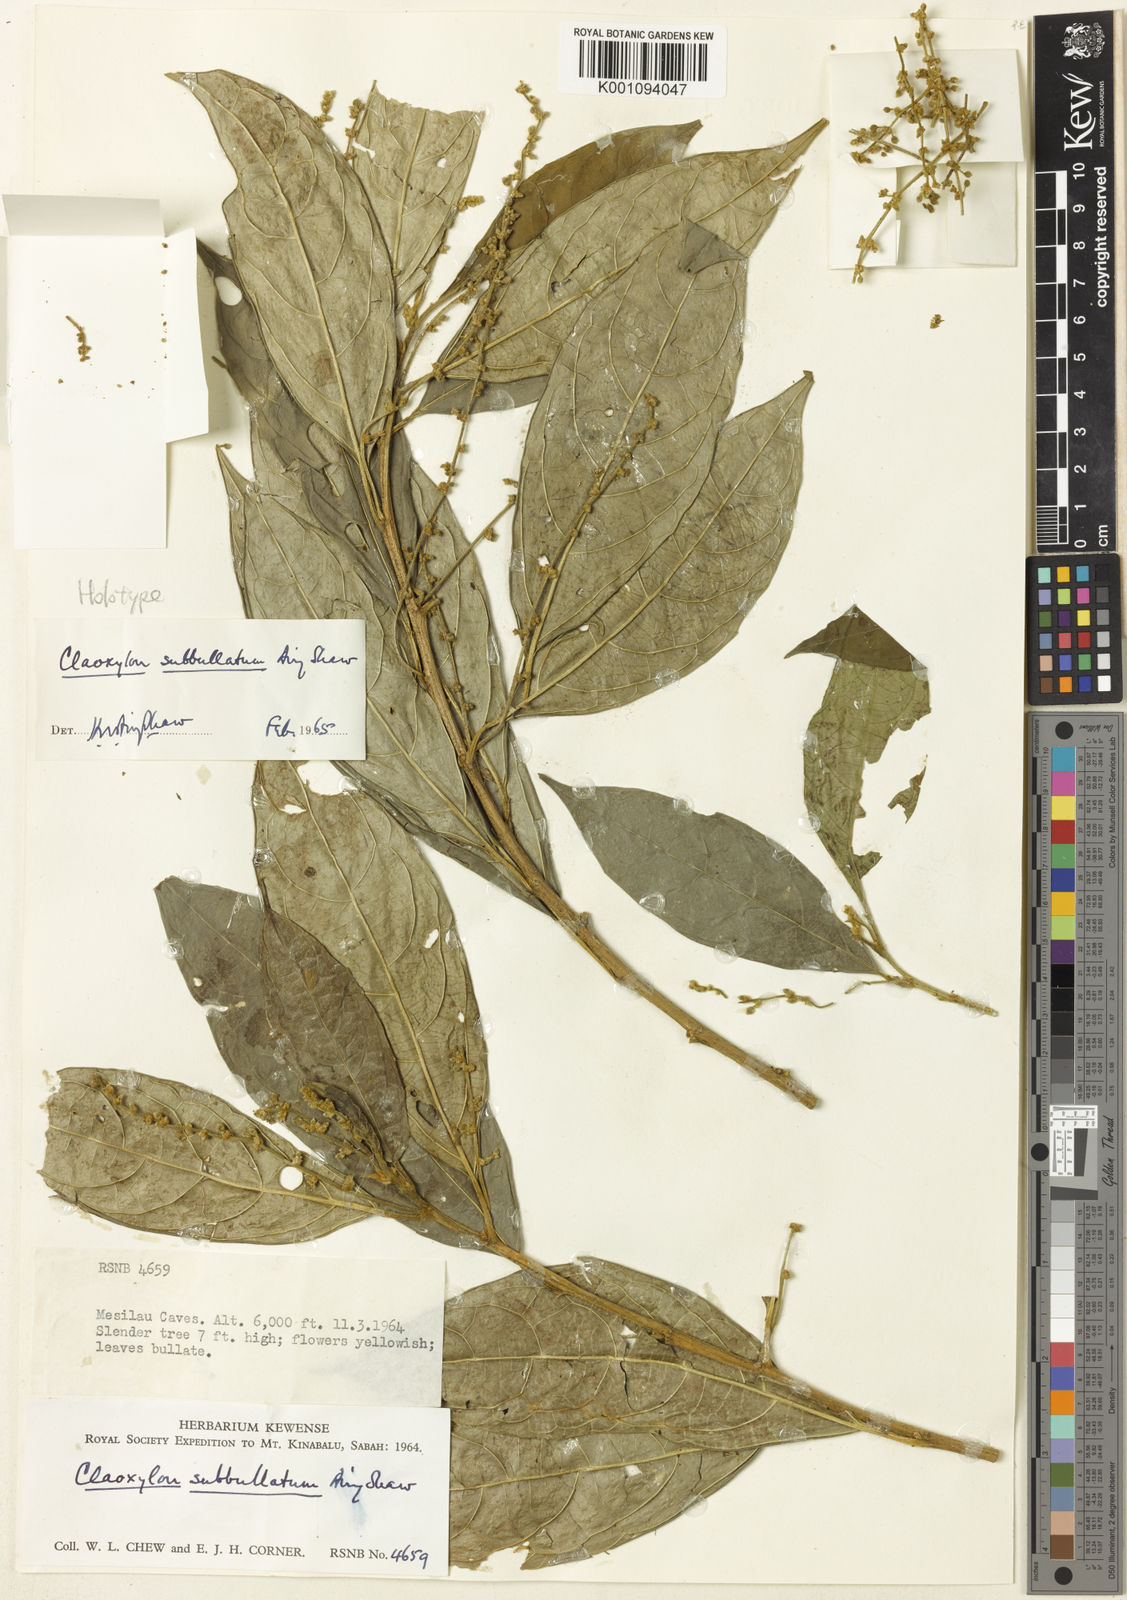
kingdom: Plantae
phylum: Tracheophyta
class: Magnoliopsida
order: Malpighiales
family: Euphorbiaceae
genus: Claoxylon
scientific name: Claoxylon subbullatum
